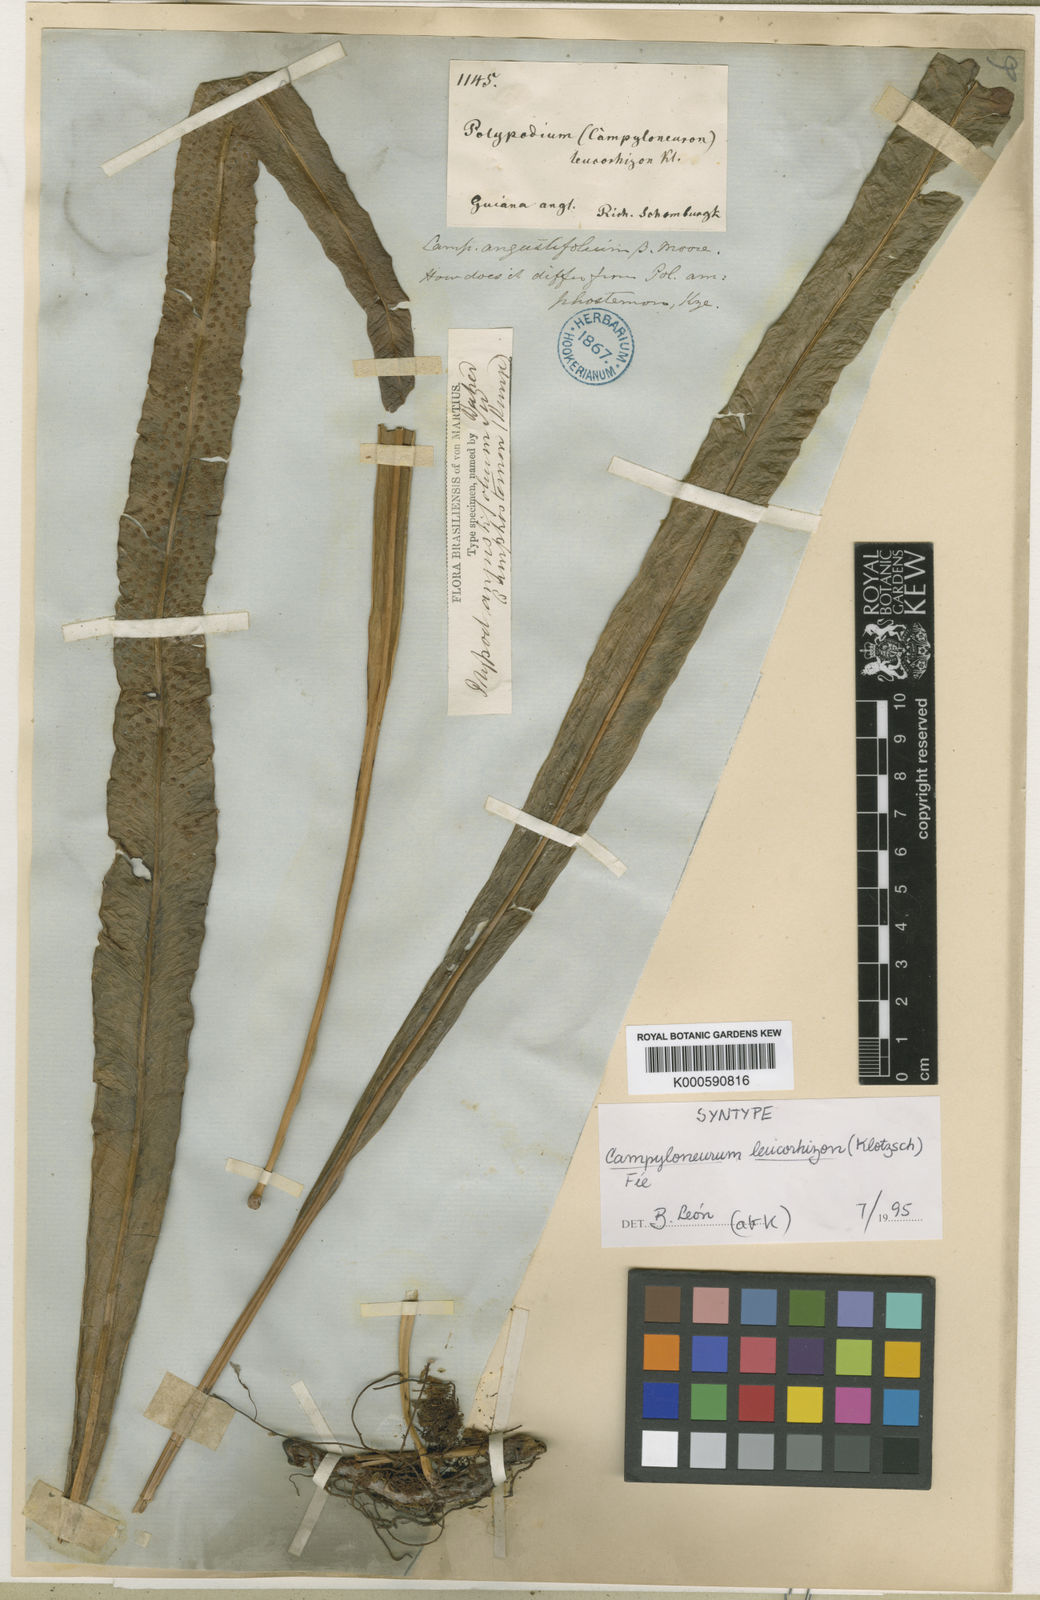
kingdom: Plantae
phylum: Tracheophyta
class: Polypodiopsida
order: Polypodiales
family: Polypodiaceae
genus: Campyloneurum
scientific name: Campyloneurum
